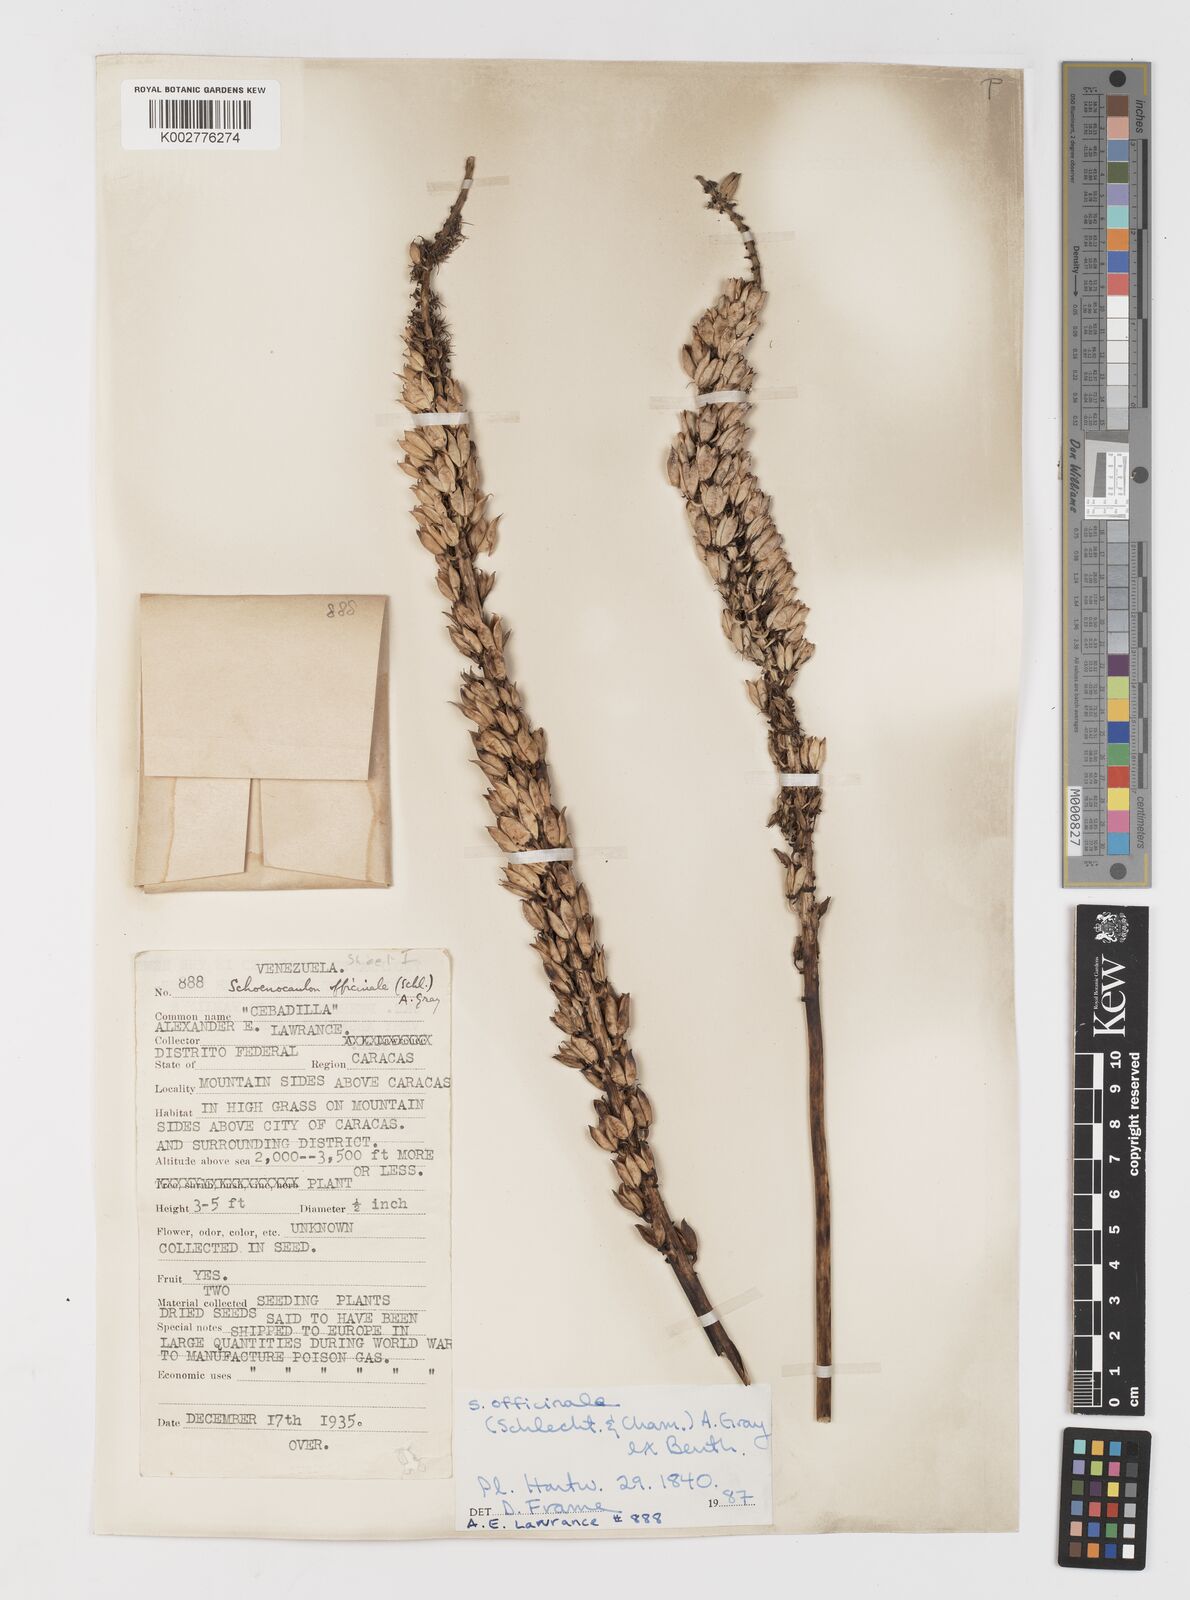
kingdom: Plantae
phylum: Tracheophyta
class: Liliopsida
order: Liliales
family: Melanthiaceae
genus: Schoenocaulon
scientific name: Schoenocaulon officinale
